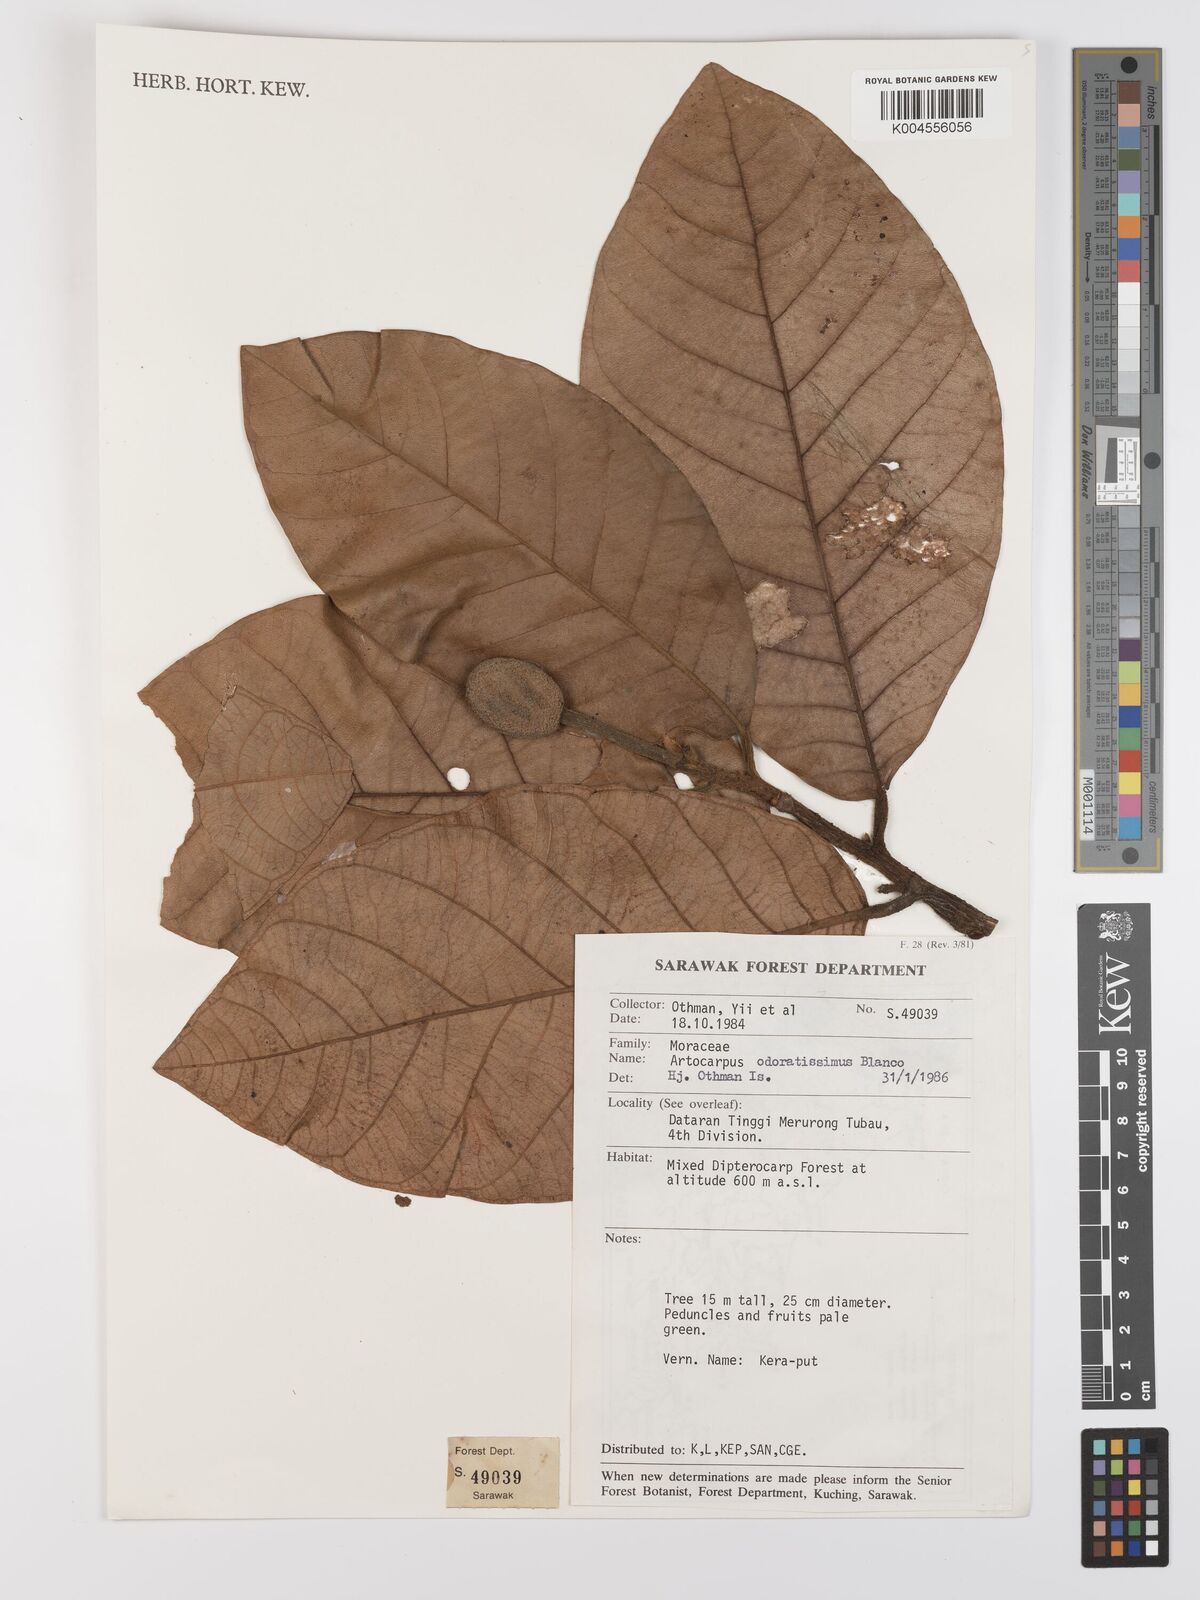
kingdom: Plantae
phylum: Tracheophyta
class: Magnoliopsida
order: Rosales
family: Moraceae
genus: Artocarpus
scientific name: Artocarpus odoratissimus
